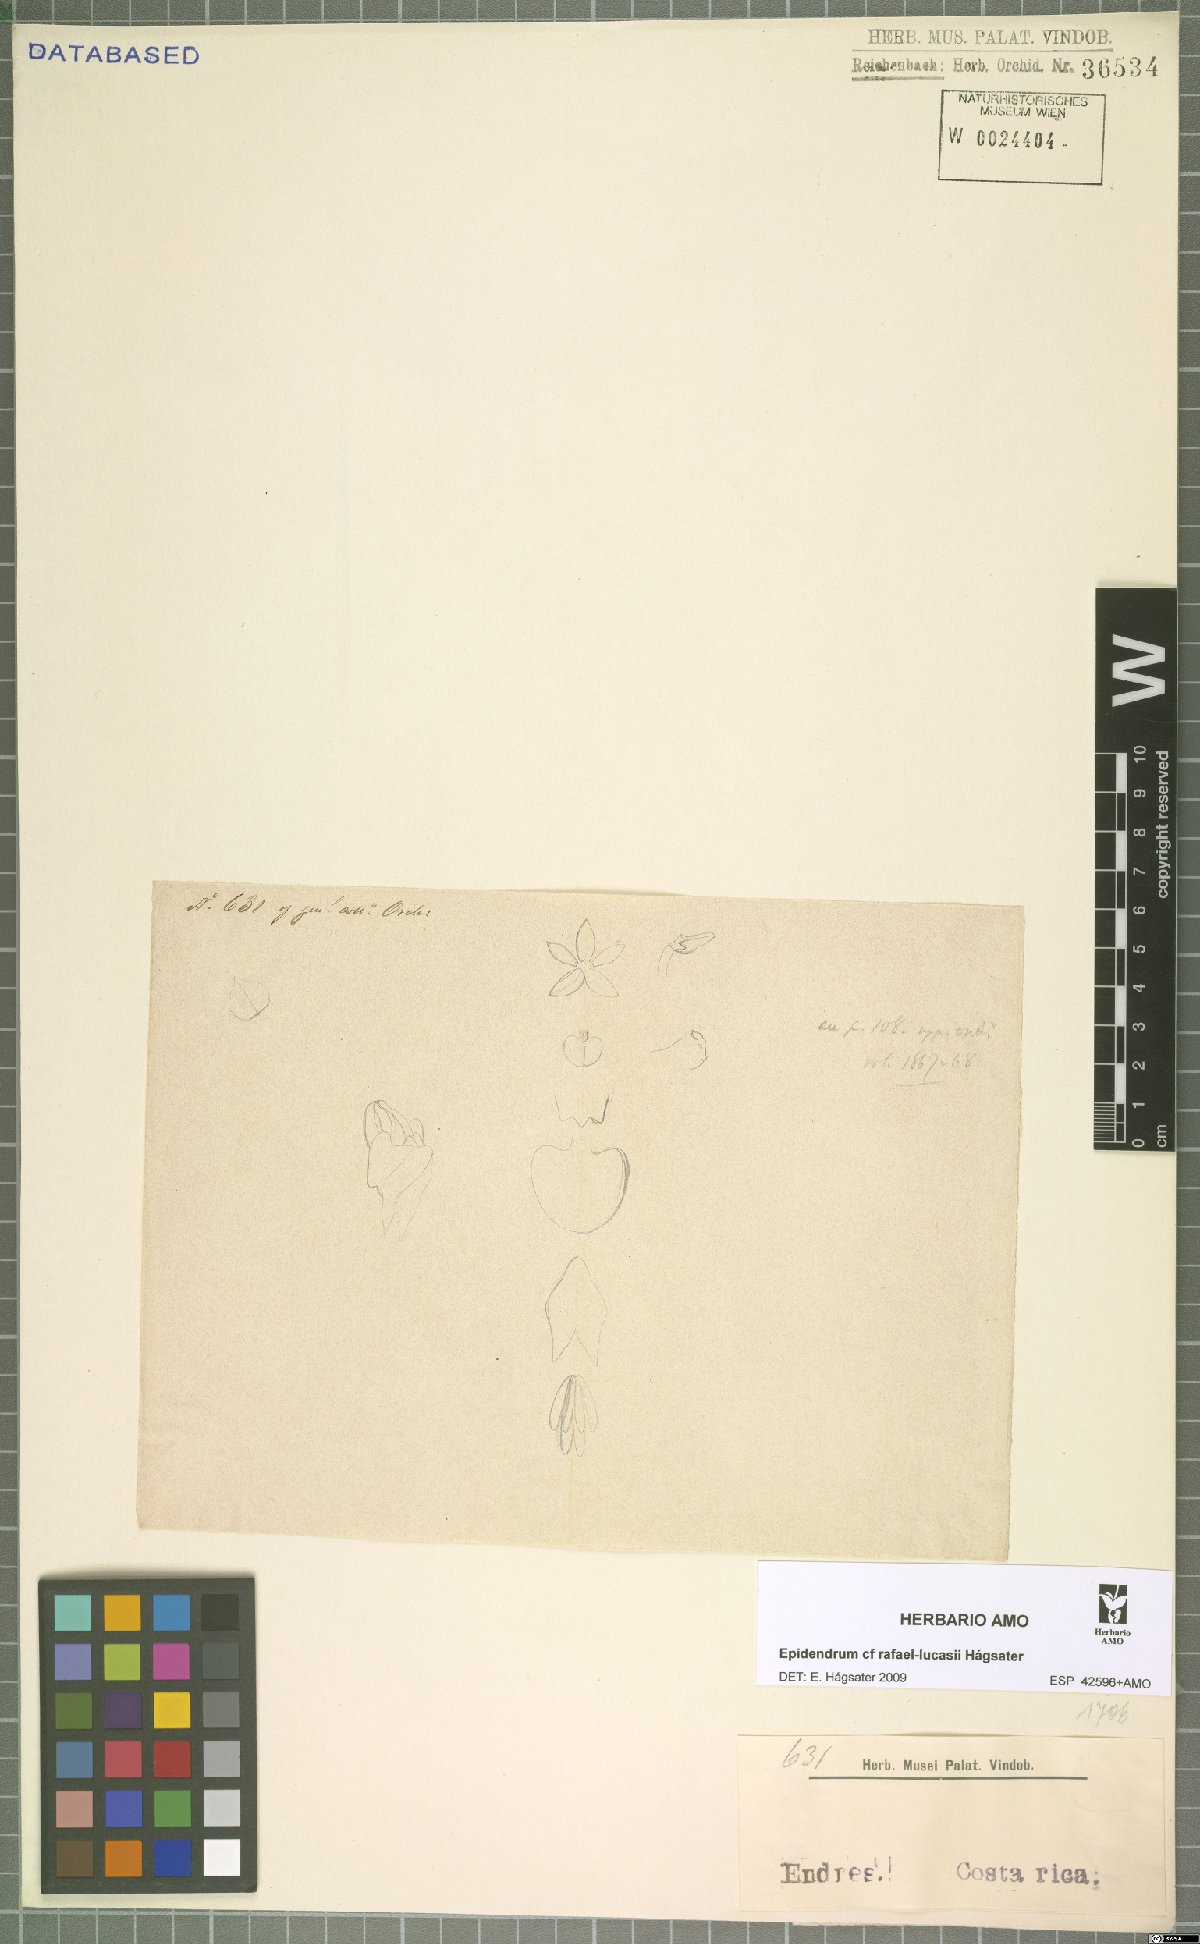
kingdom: Plantae
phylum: Tracheophyta
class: Liliopsida
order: Asparagales
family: Orchidaceae
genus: Epidendrum
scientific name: Epidendrum rafael-lucasii
